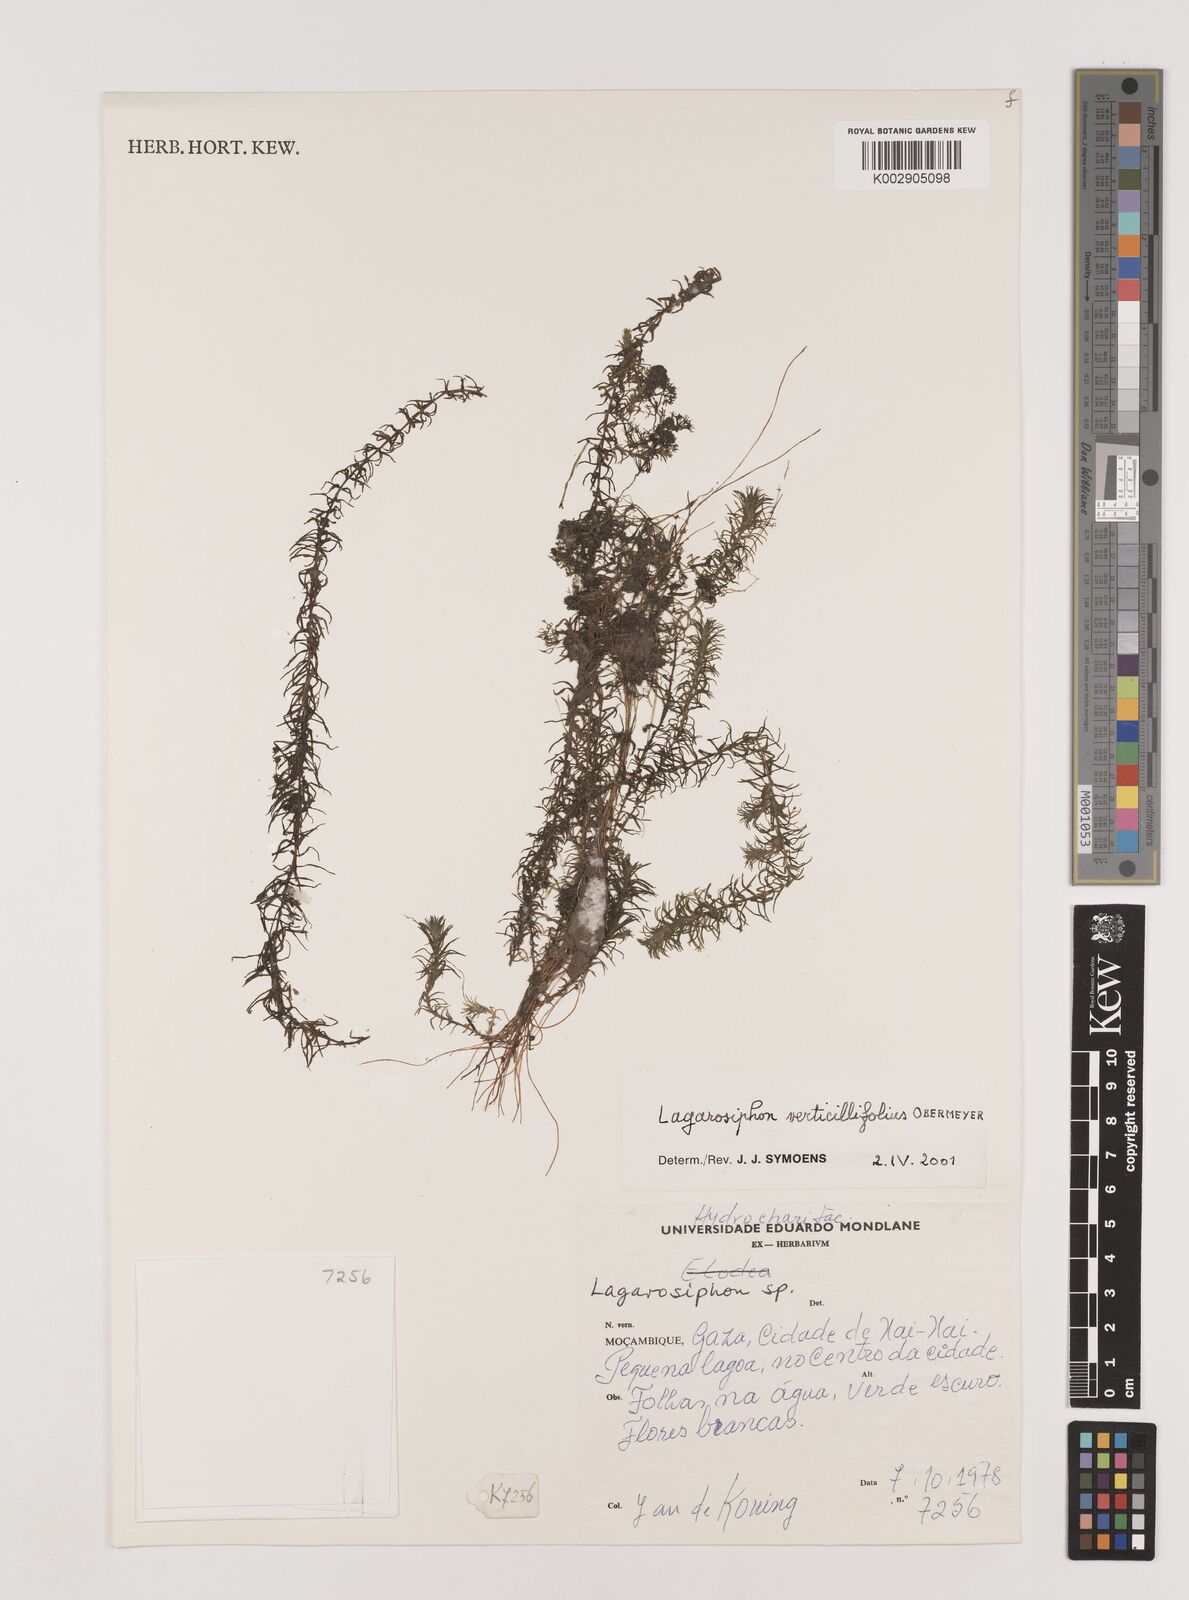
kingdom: Plantae
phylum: Tracheophyta
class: Liliopsida
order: Alismatales
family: Hydrocharitaceae
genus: Lagarosiphon
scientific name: Lagarosiphon verticillifolius
